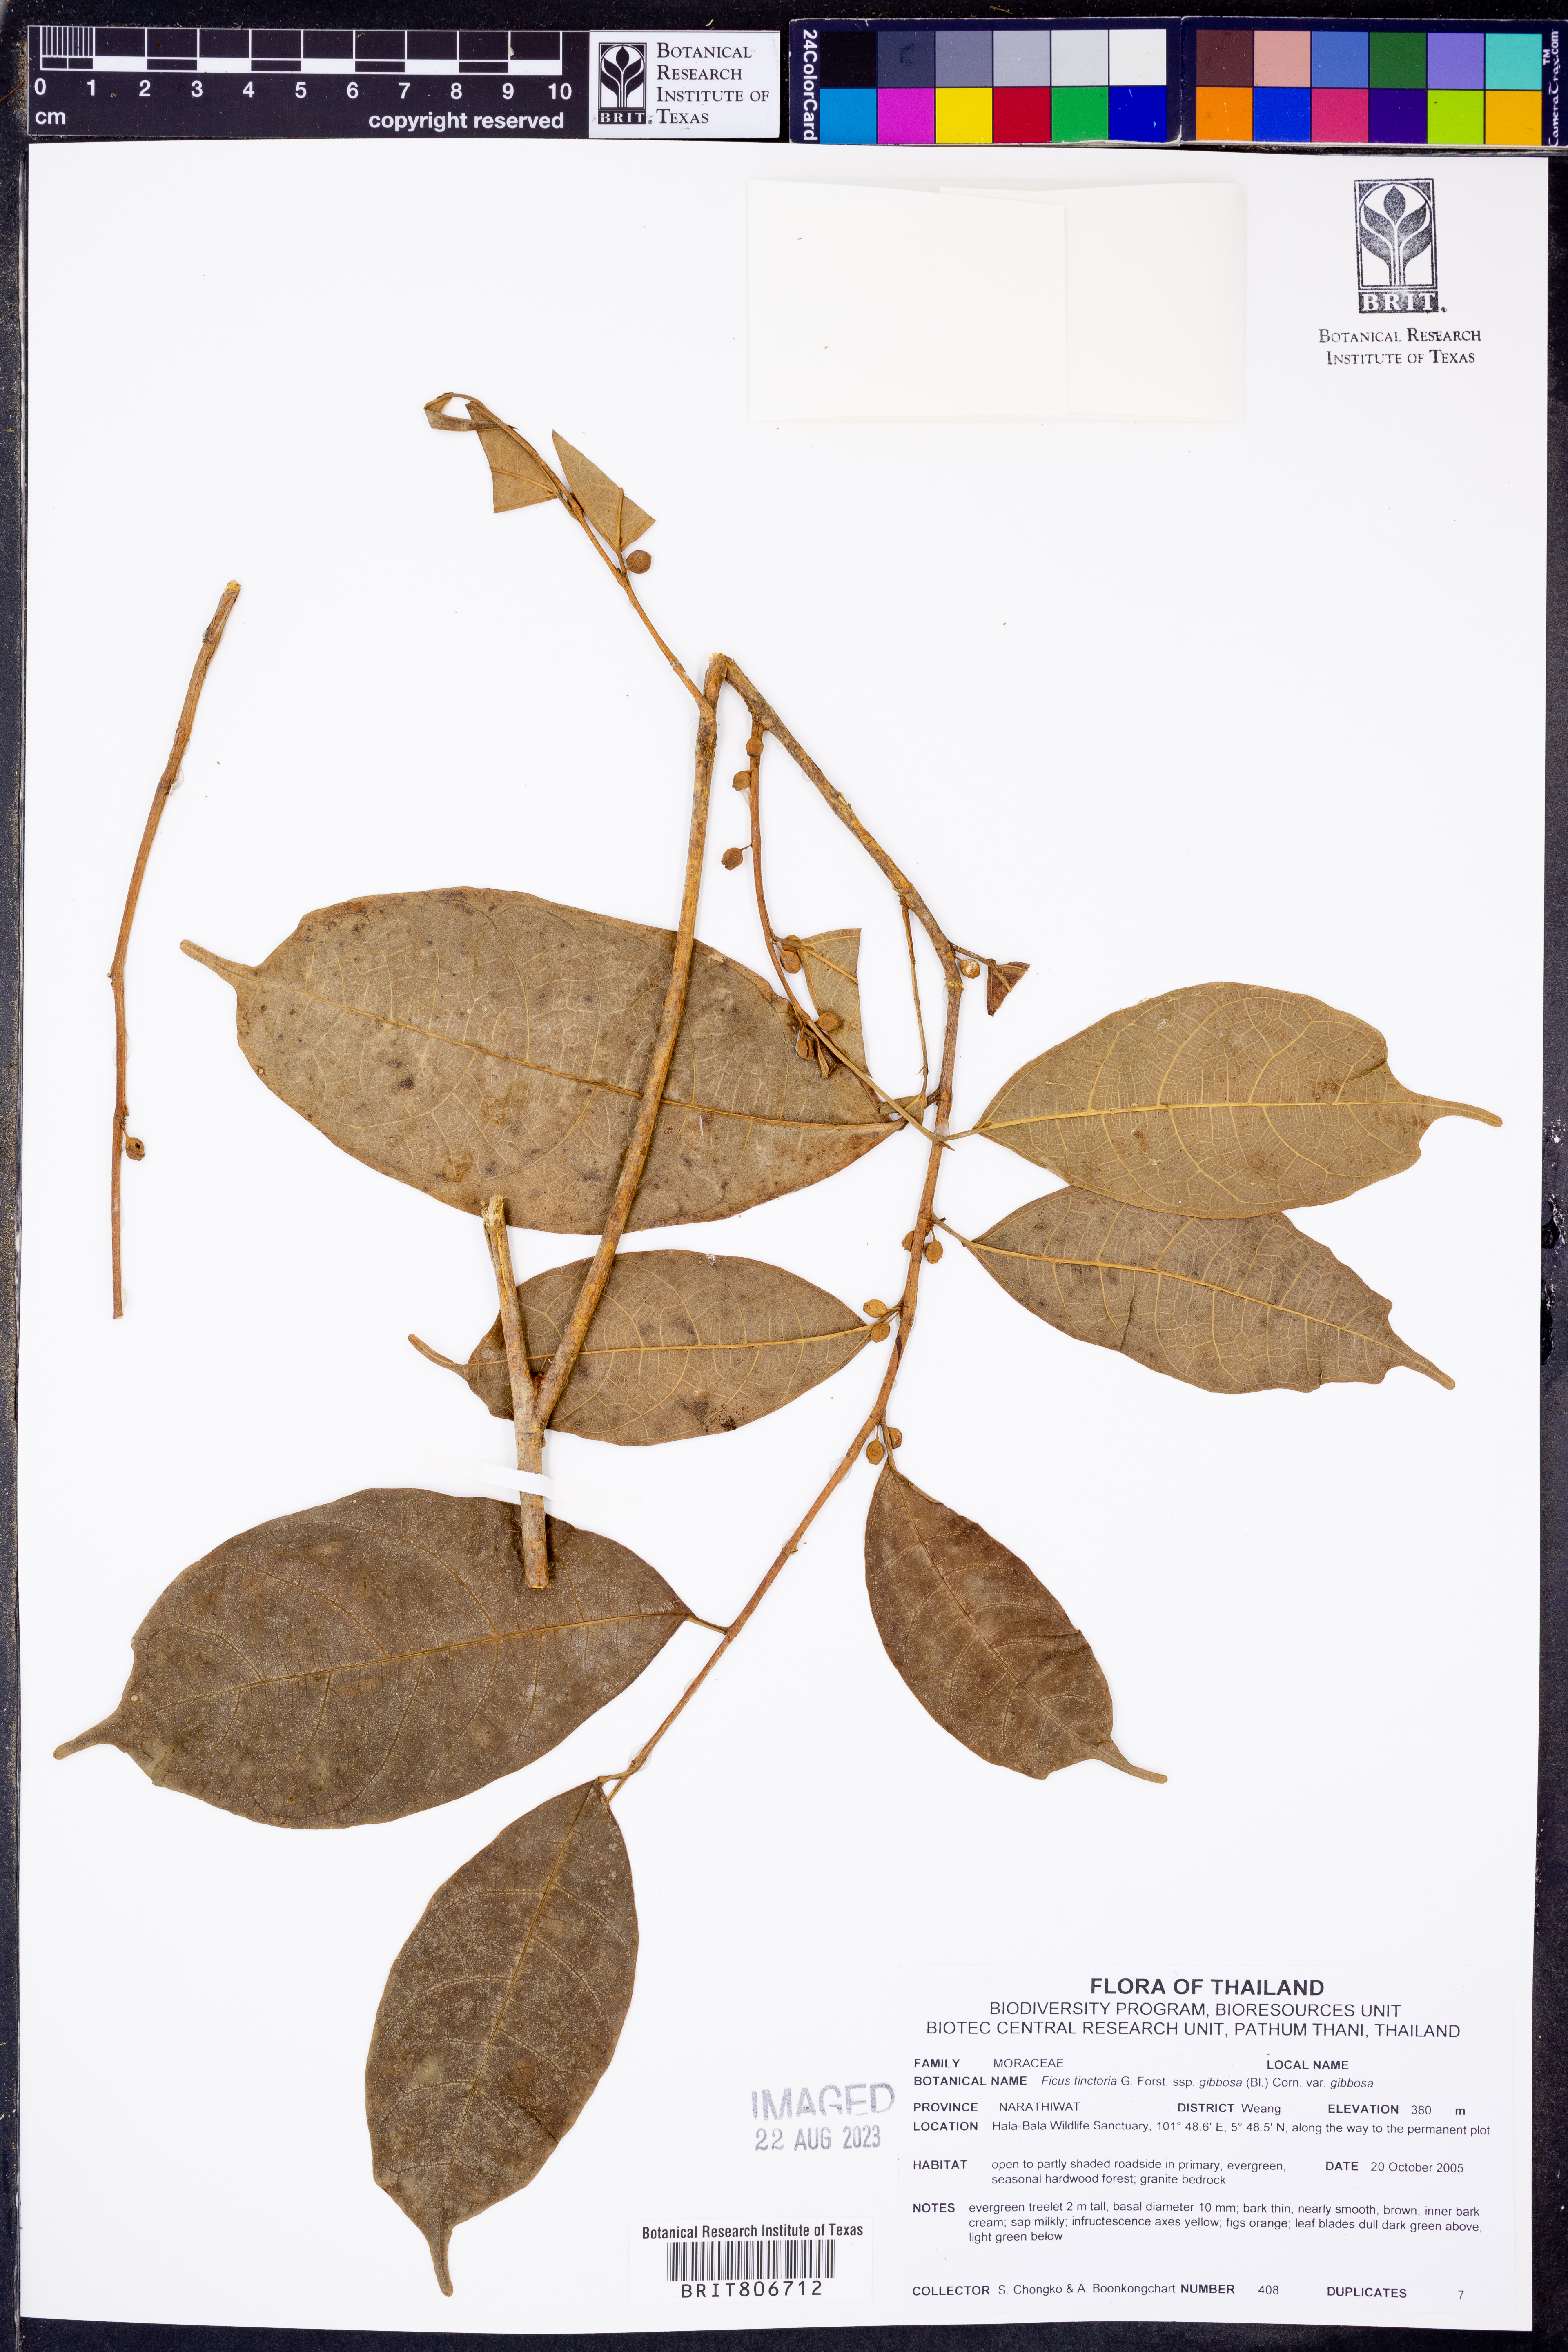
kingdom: Plantae
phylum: Tracheophyta
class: Magnoliopsida
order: Rosales
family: Moraceae
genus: Ficus
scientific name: Ficus tinctoria
